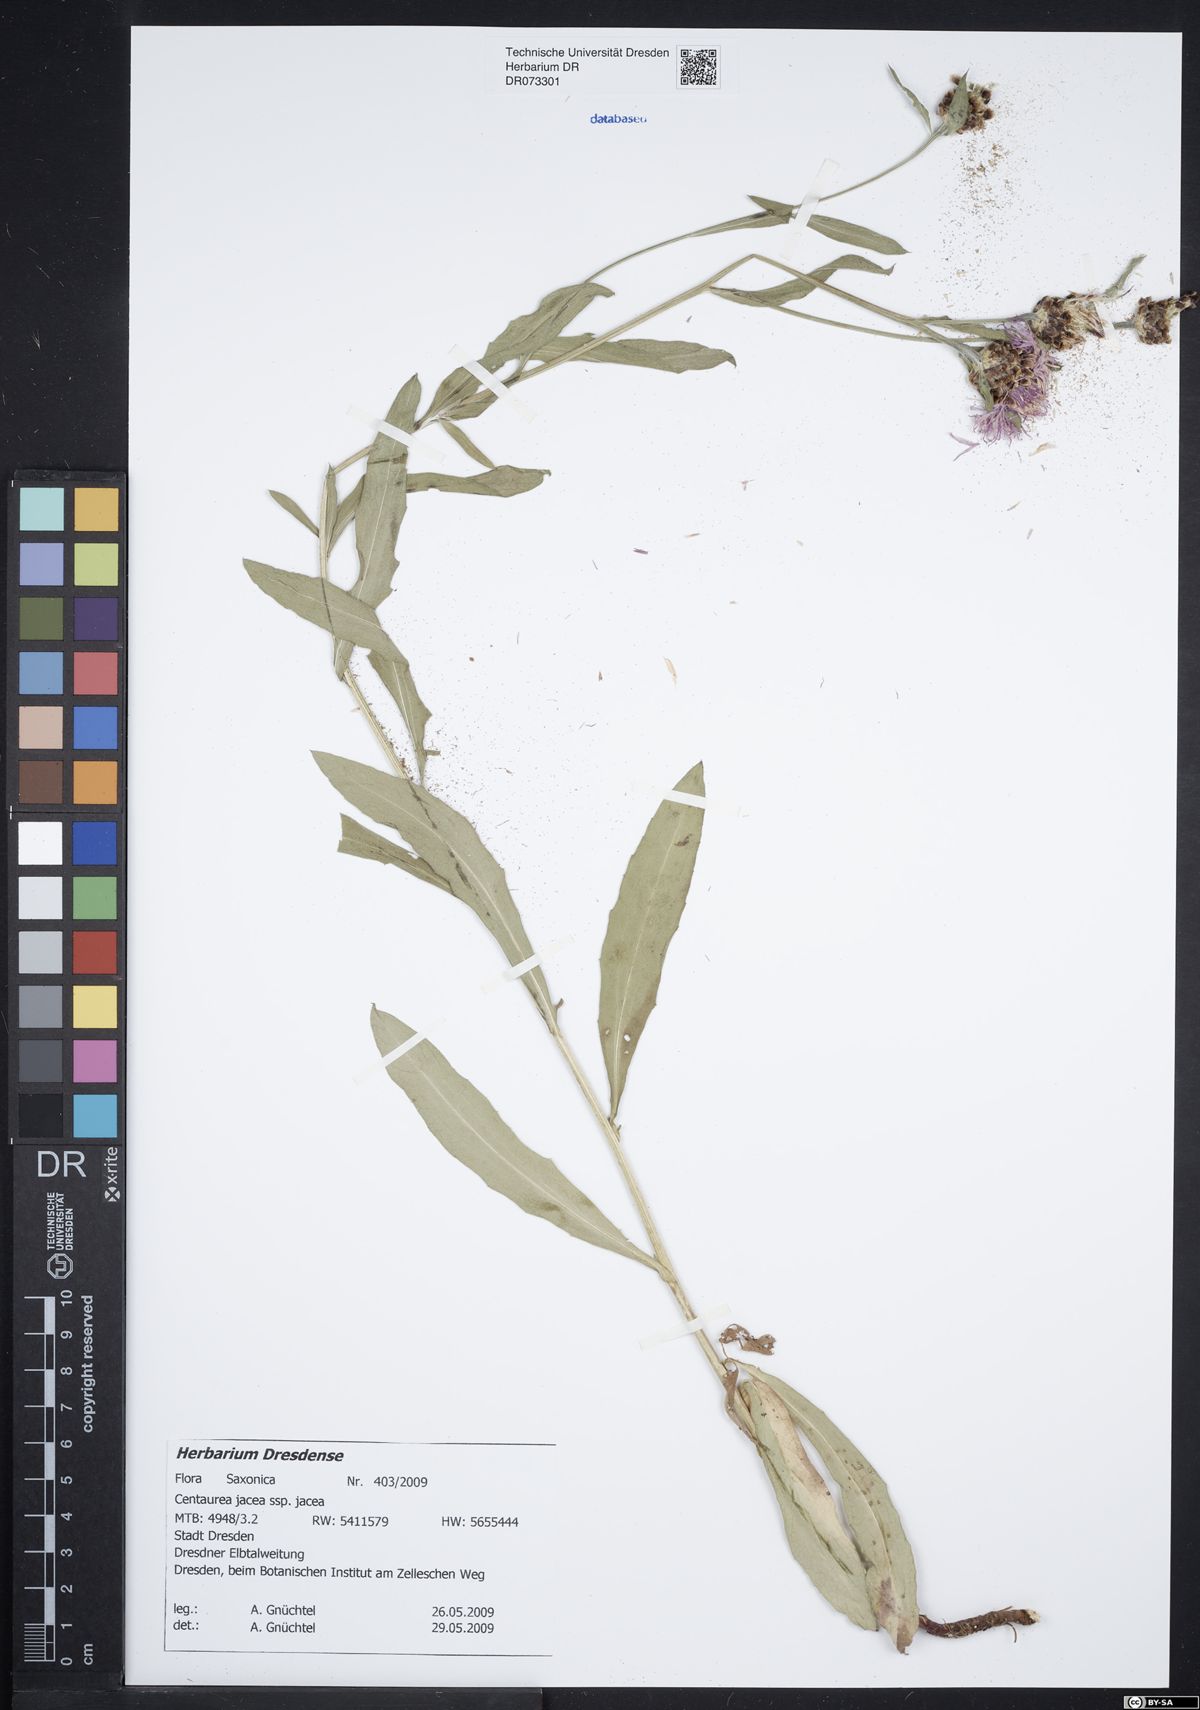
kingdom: Plantae
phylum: Tracheophyta
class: Magnoliopsida
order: Asterales
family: Asteraceae
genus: Centaurea
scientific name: Centaurea jacea
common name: Brown knapweed
